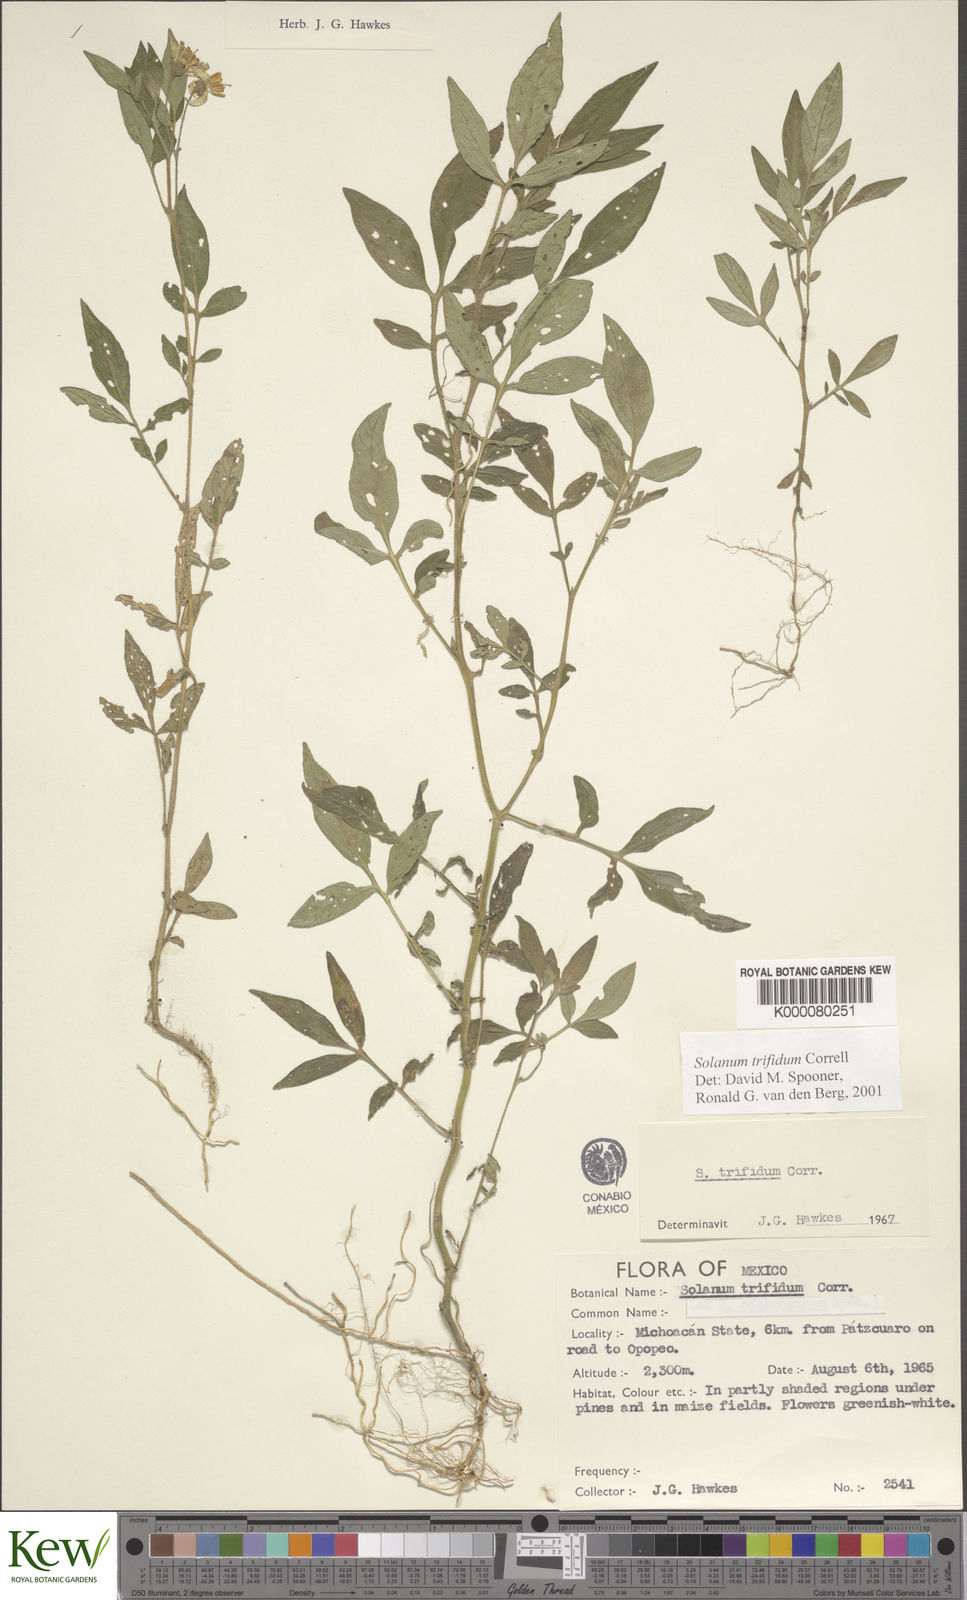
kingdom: Plantae
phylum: Tracheophyta
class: Magnoliopsida
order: Solanales
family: Solanaceae
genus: Solanum
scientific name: Solanum trifidum
